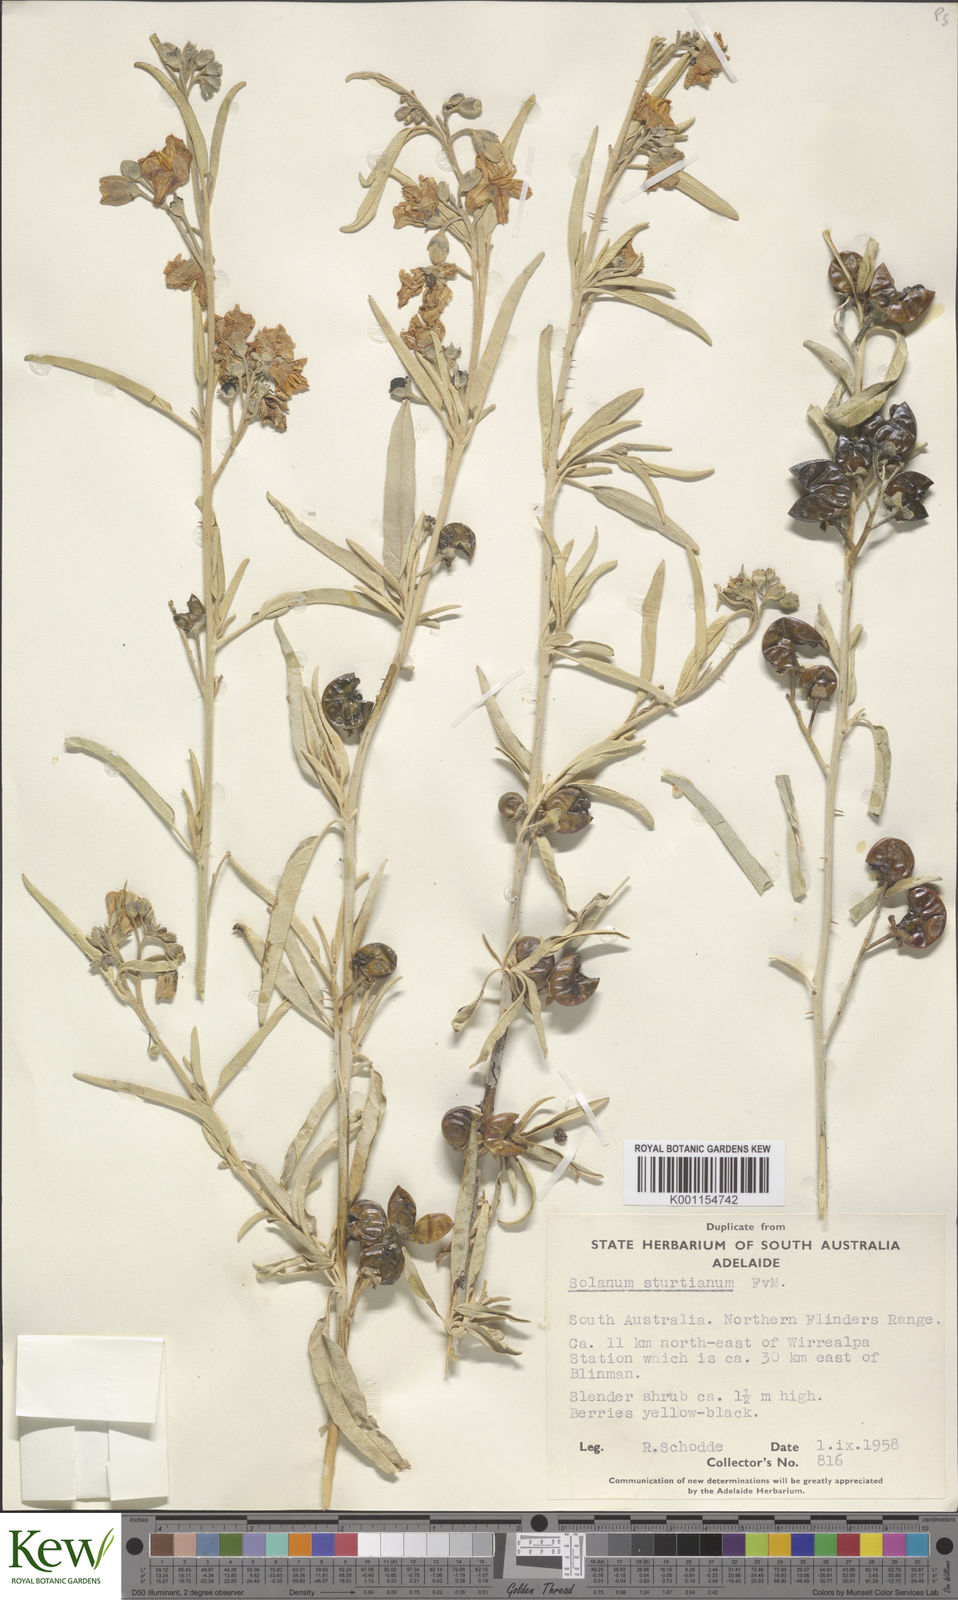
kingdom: Plantae
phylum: Tracheophyta
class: Magnoliopsida
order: Solanales
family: Solanaceae
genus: Solanum
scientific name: Solanum sturtianum
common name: Thargomindah nightshade
